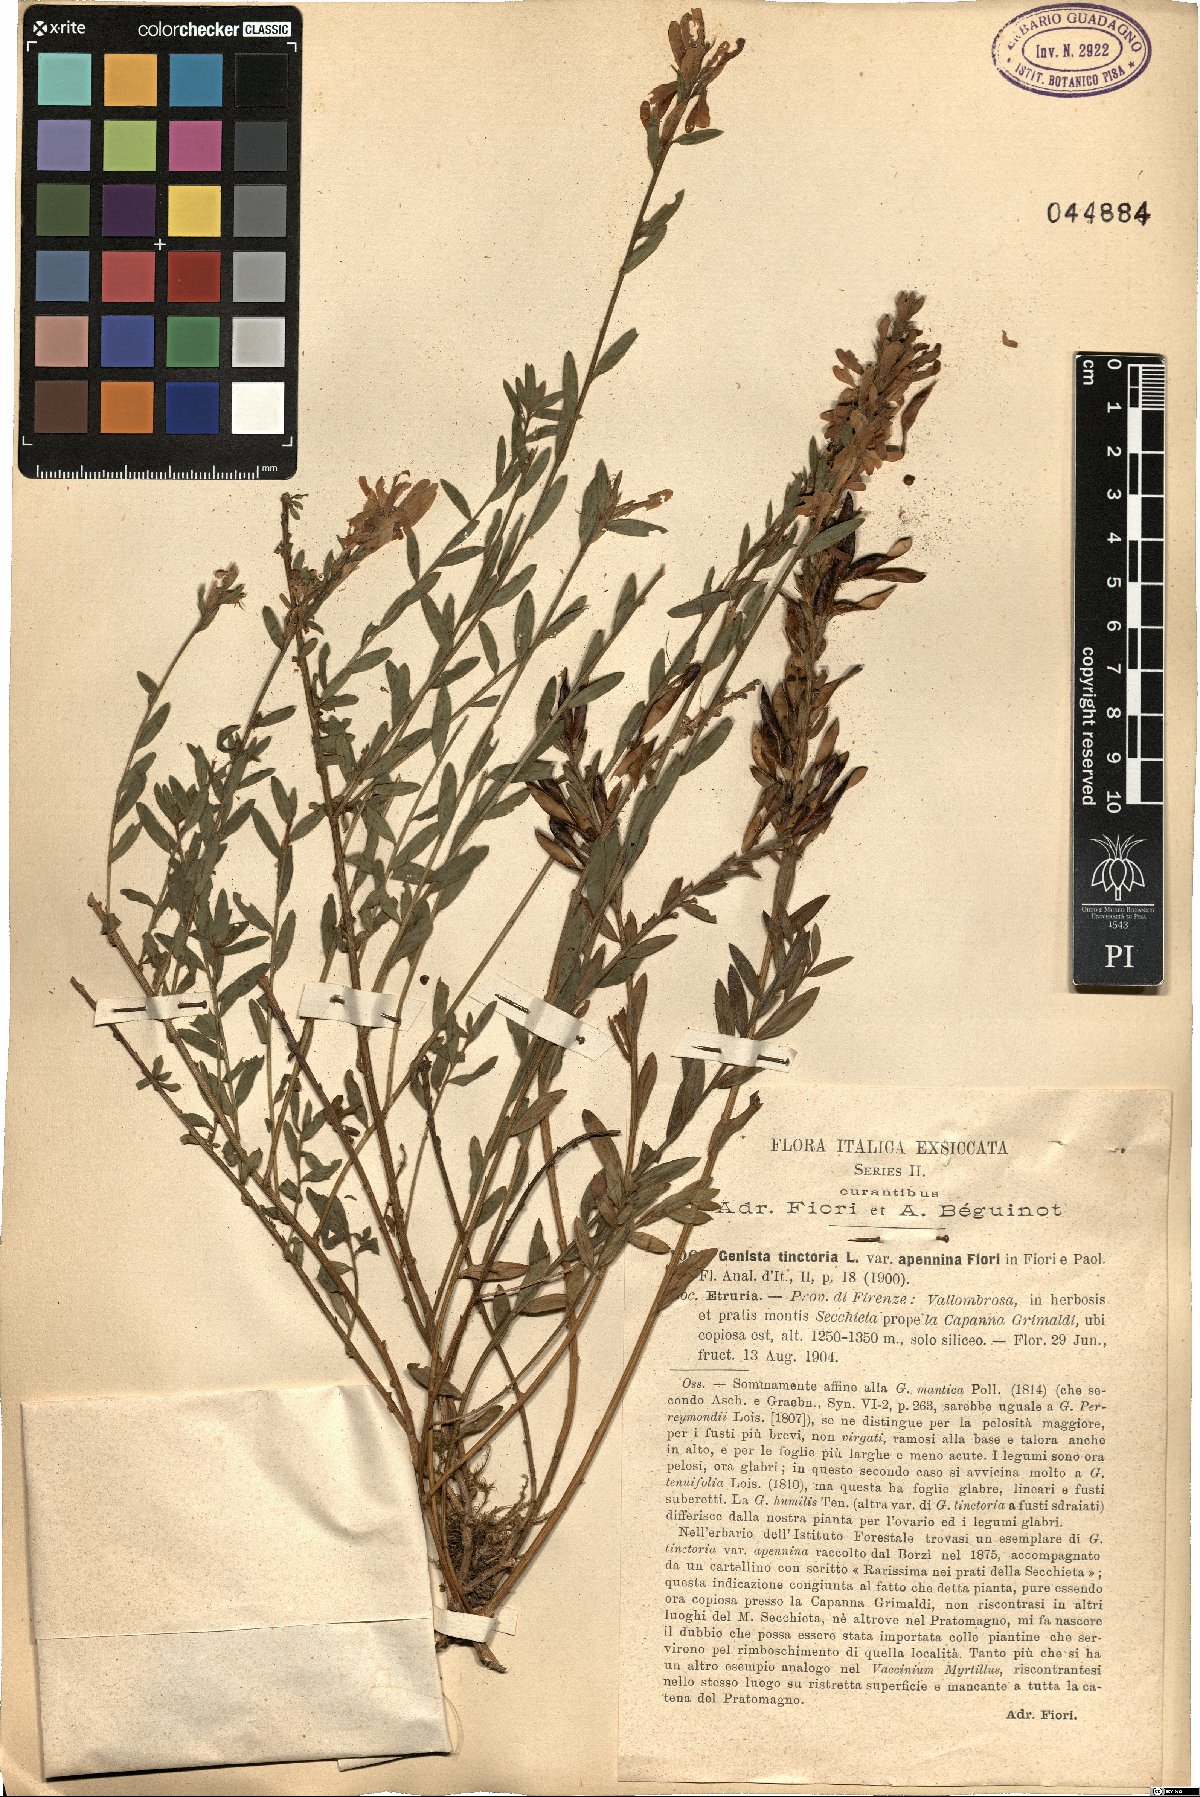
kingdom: Plantae
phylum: Tracheophyta
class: Magnoliopsida
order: Fabales
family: Fabaceae
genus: Genista
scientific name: Genista tinctoria
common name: Dyer's greenweed
